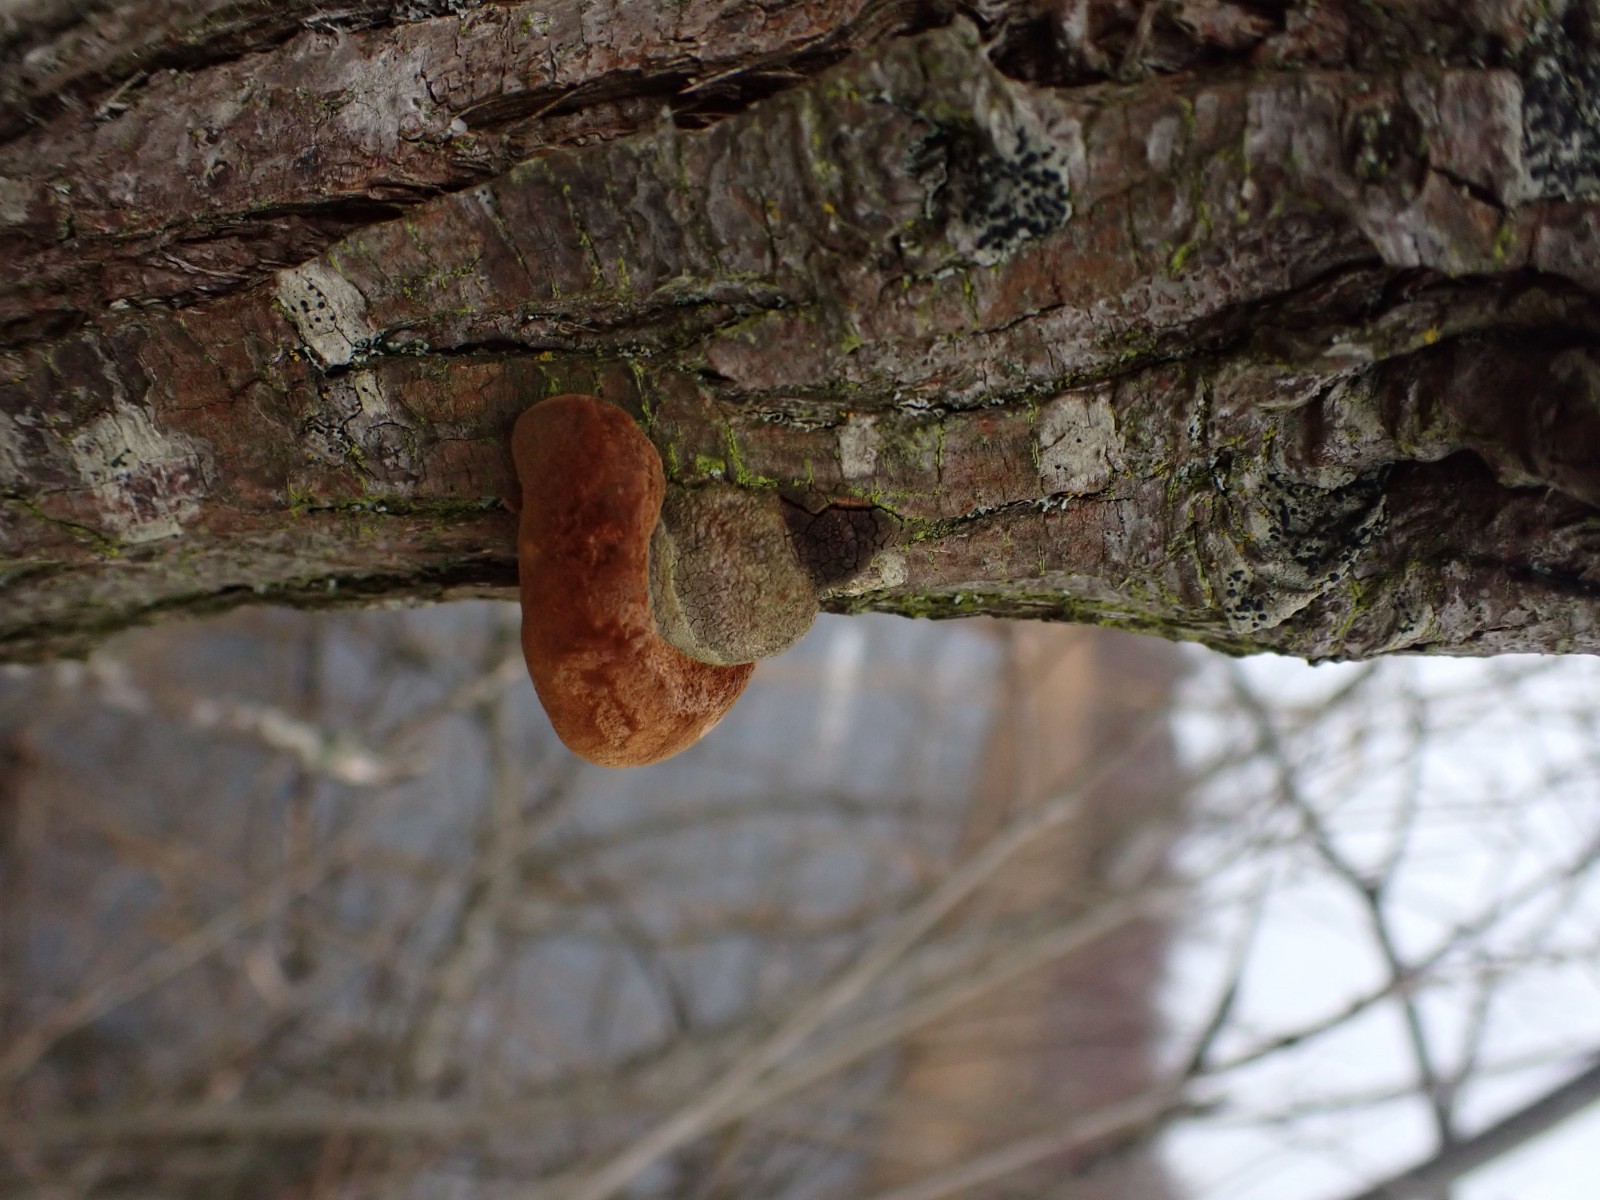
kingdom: Fungi
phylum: Basidiomycota
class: Agaricomycetes
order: Hymenochaetales
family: Hymenochaetaceae
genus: Fomitiporia
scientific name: Fomitiporia hippophaeicola
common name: havtorn-ildporesvamp
